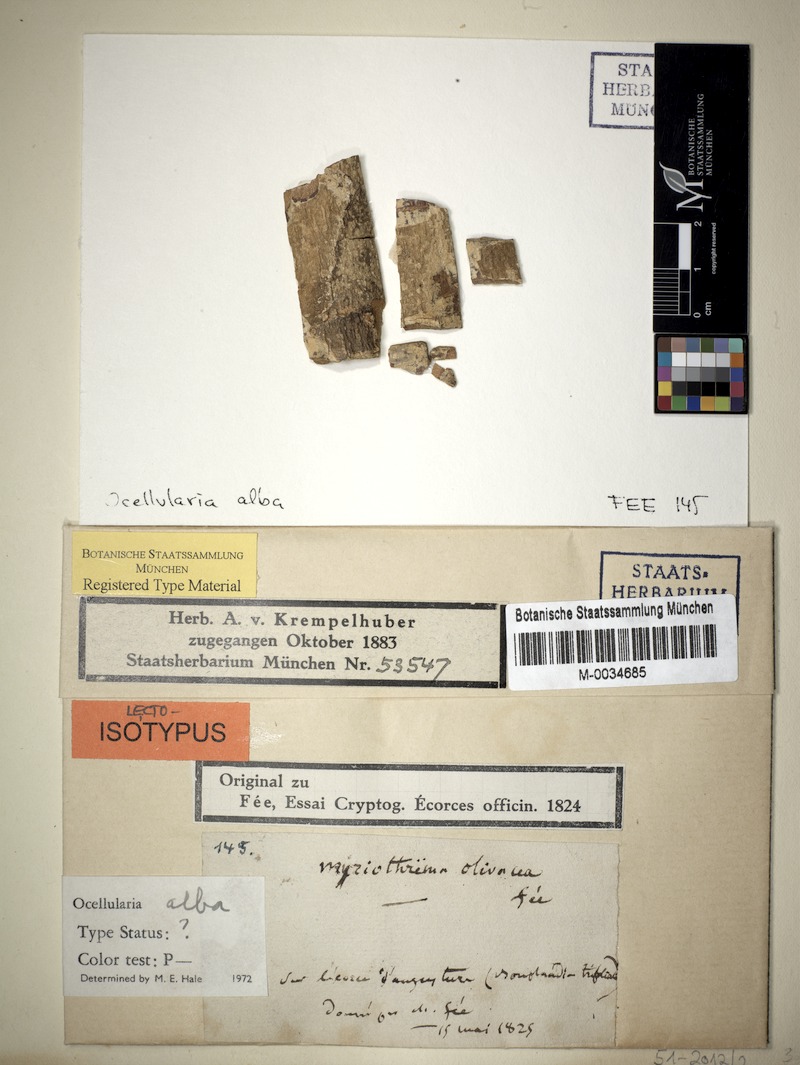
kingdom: Fungi
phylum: Ascomycota
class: Lecanoromycetes
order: Ostropales
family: Graphidaceae
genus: Ocellularia
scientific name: Ocellularia alba
